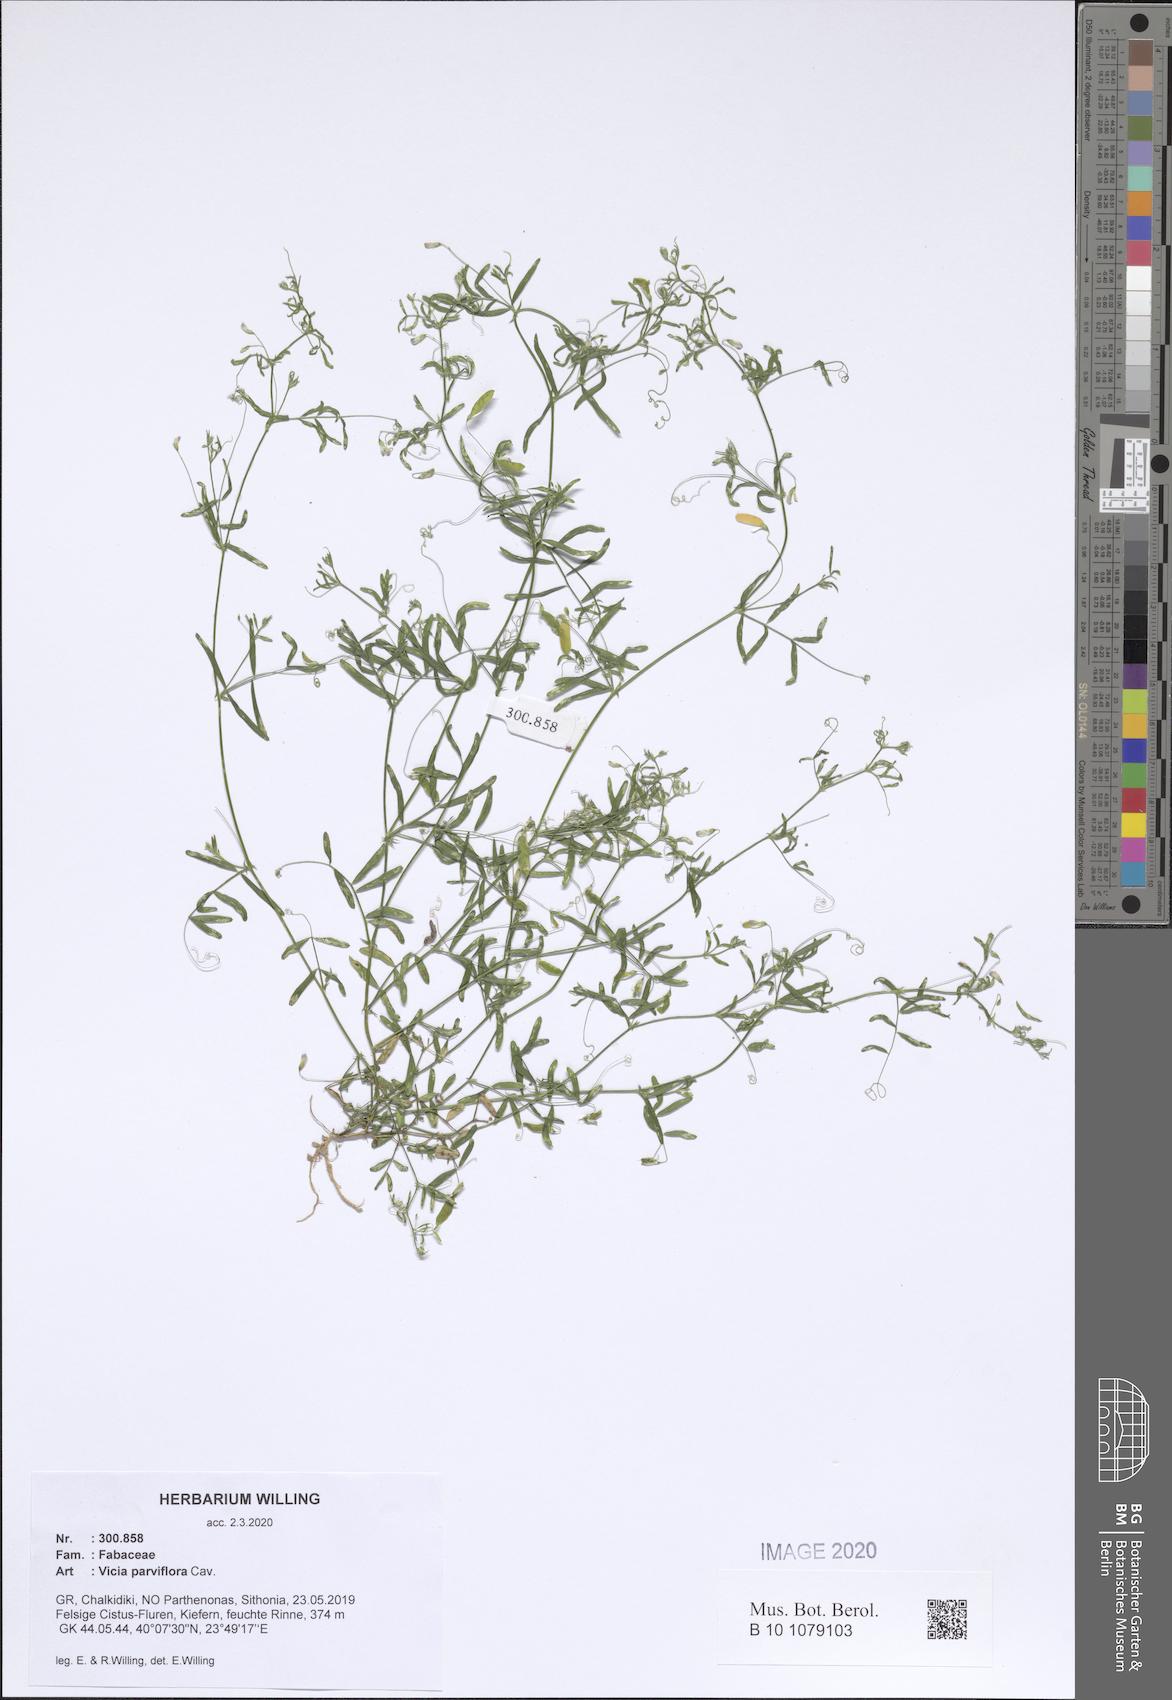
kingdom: Plantae
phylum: Tracheophyta
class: Magnoliopsida
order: Fabales
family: Fabaceae
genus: Vicia
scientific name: Vicia parviflora
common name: Slender tare
